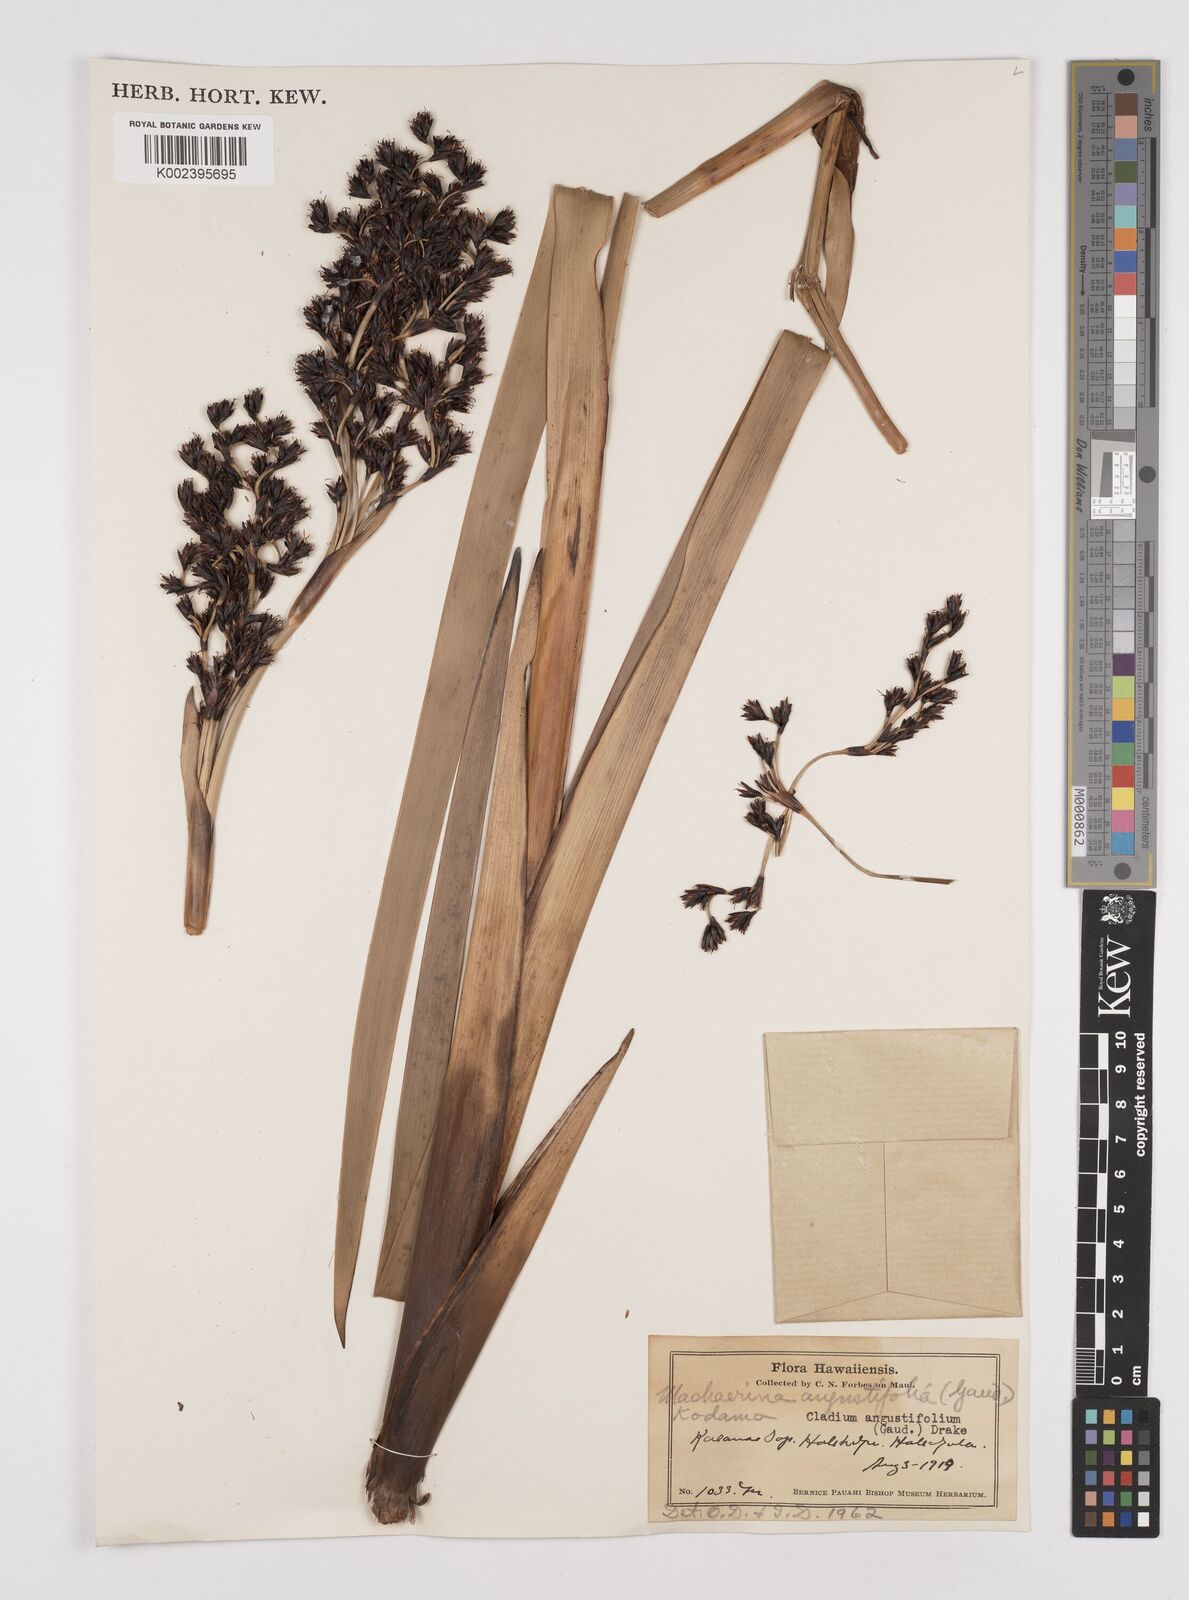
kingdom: Plantae
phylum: Tracheophyta
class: Liliopsida
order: Poales
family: Cyperaceae
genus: Machaerina
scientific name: Machaerina angustifolia
